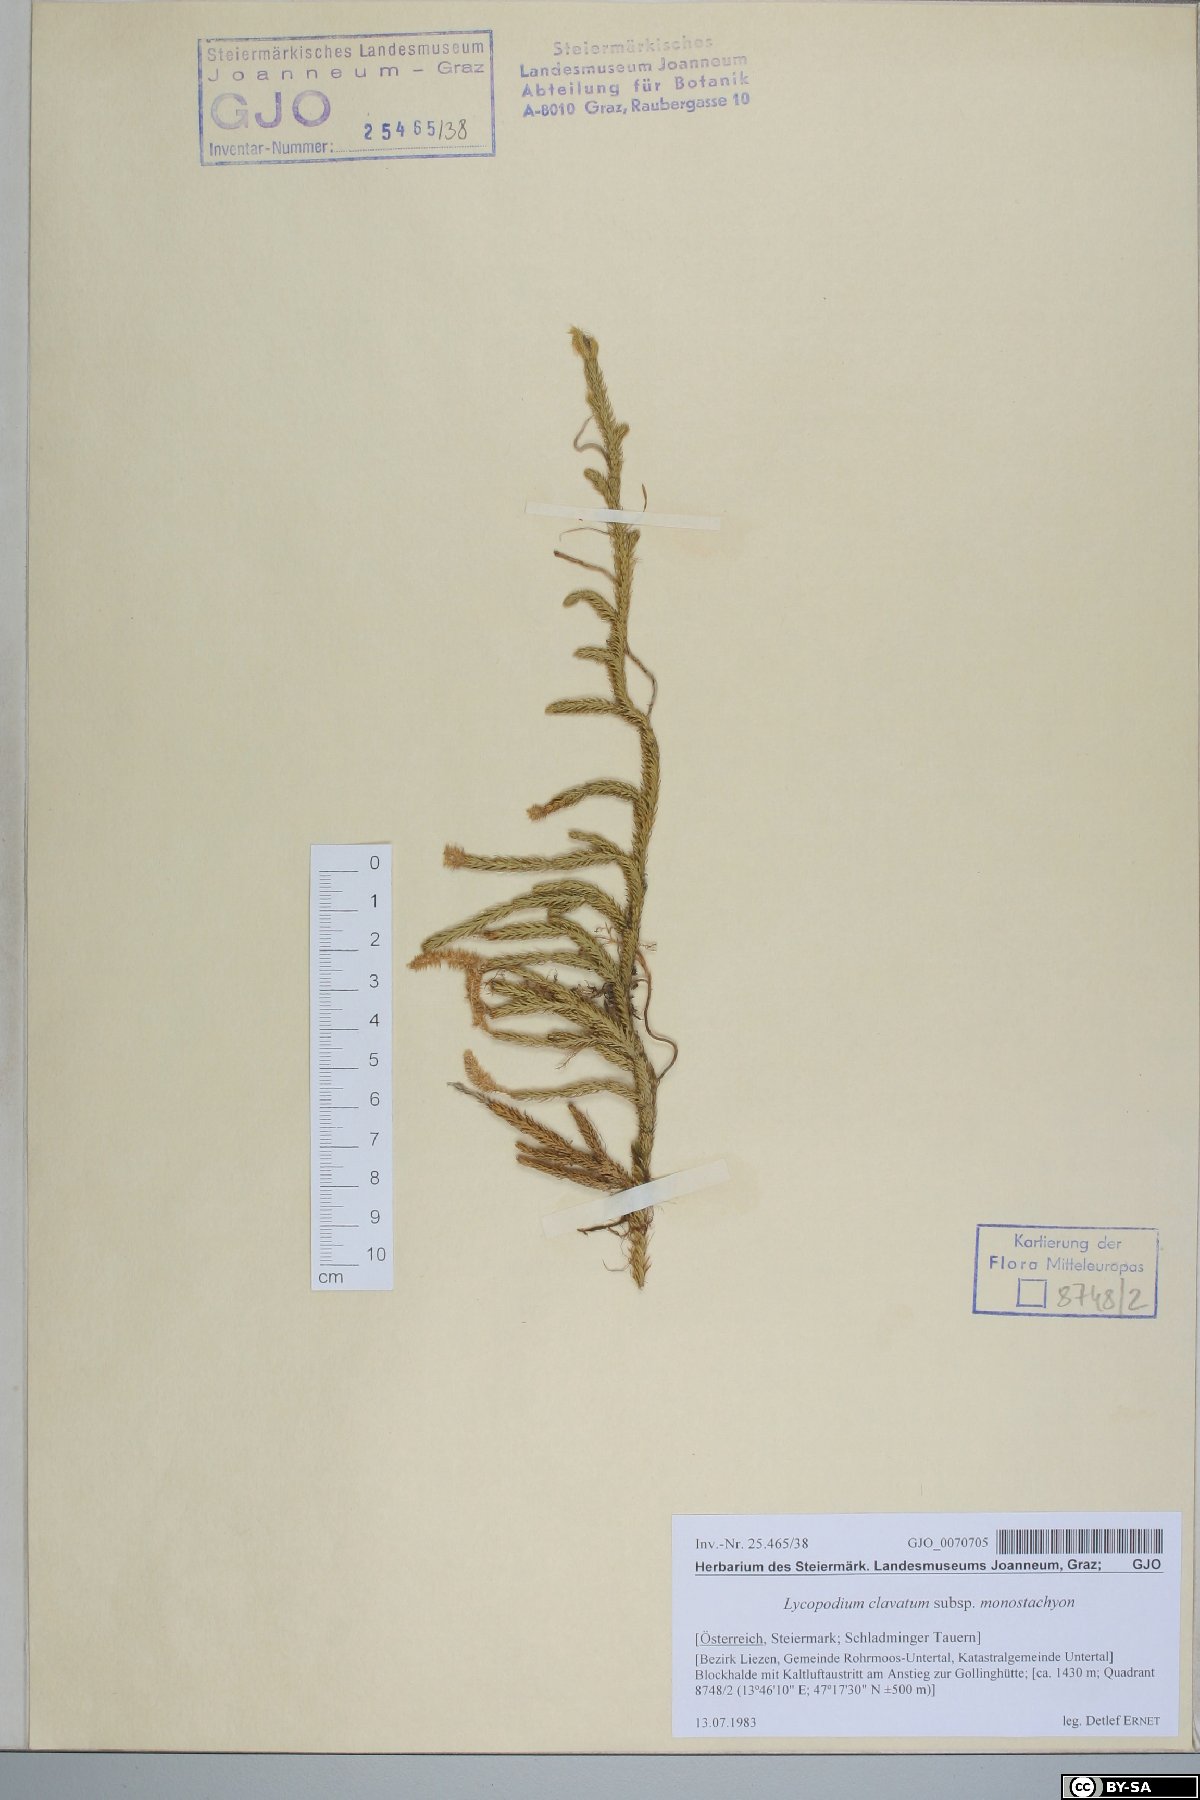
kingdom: Plantae
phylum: Tracheophyta
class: Lycopodiopsida
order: Lycopodiales
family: Lycopodiaceae
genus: Lycopodium
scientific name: Lycopodium lagopus
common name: One-cone clubmoss
